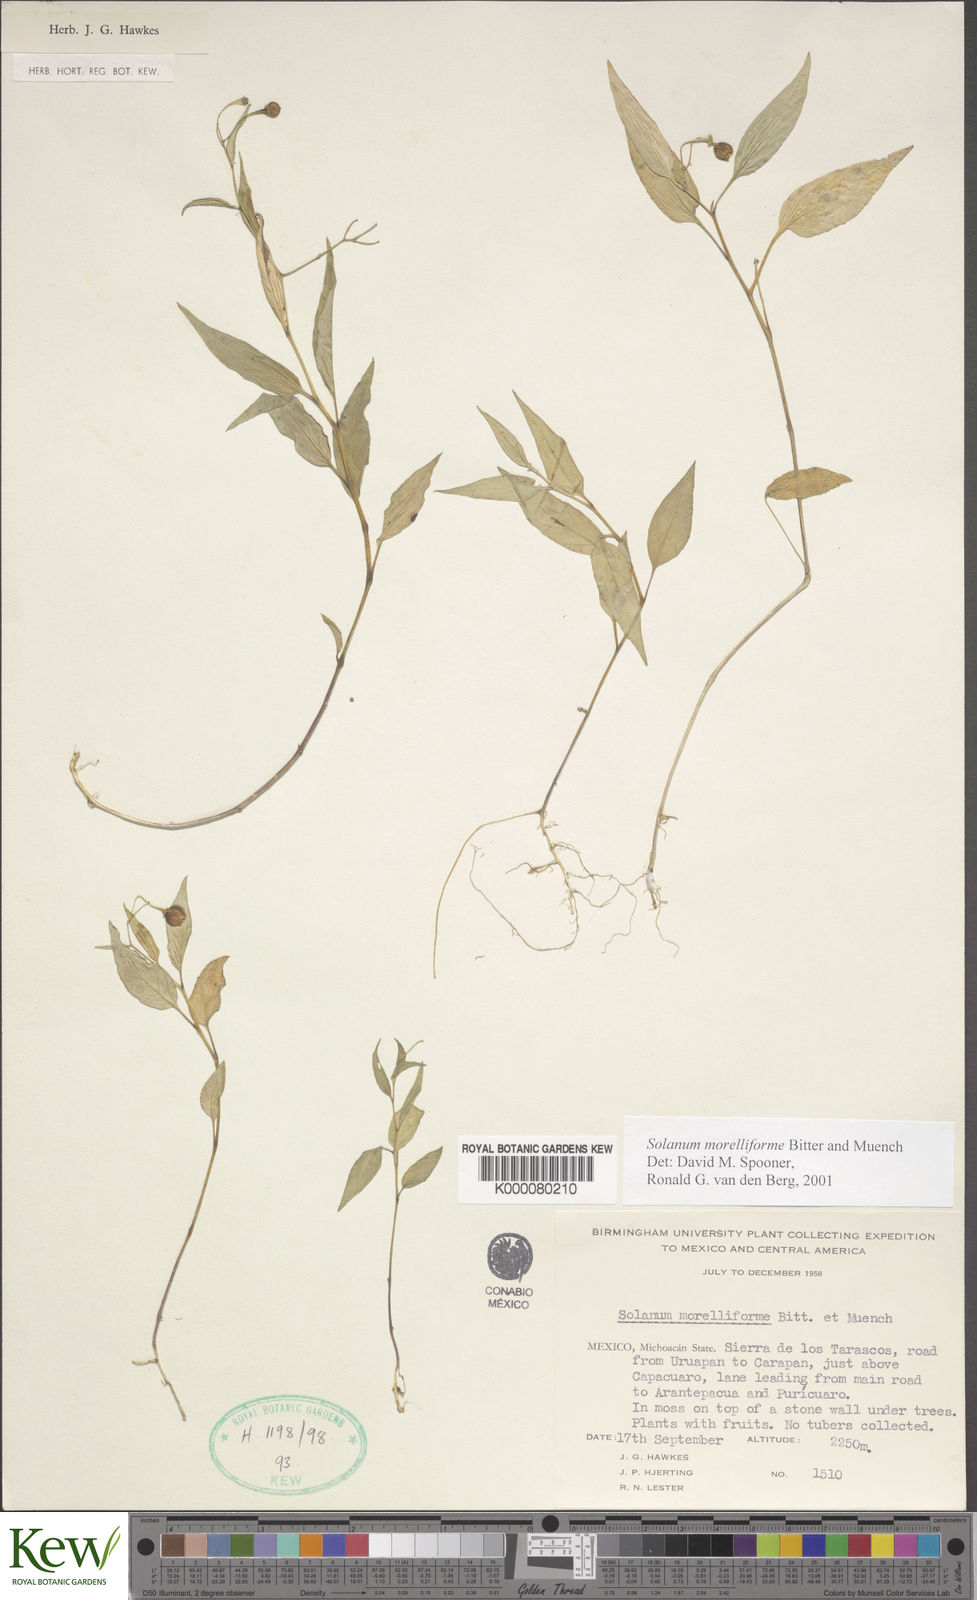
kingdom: Plantae
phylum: Tracheophyta
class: Magnoliopsida
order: Solanales
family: Solanaceae
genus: Solanum
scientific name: Solanum morelliforme
